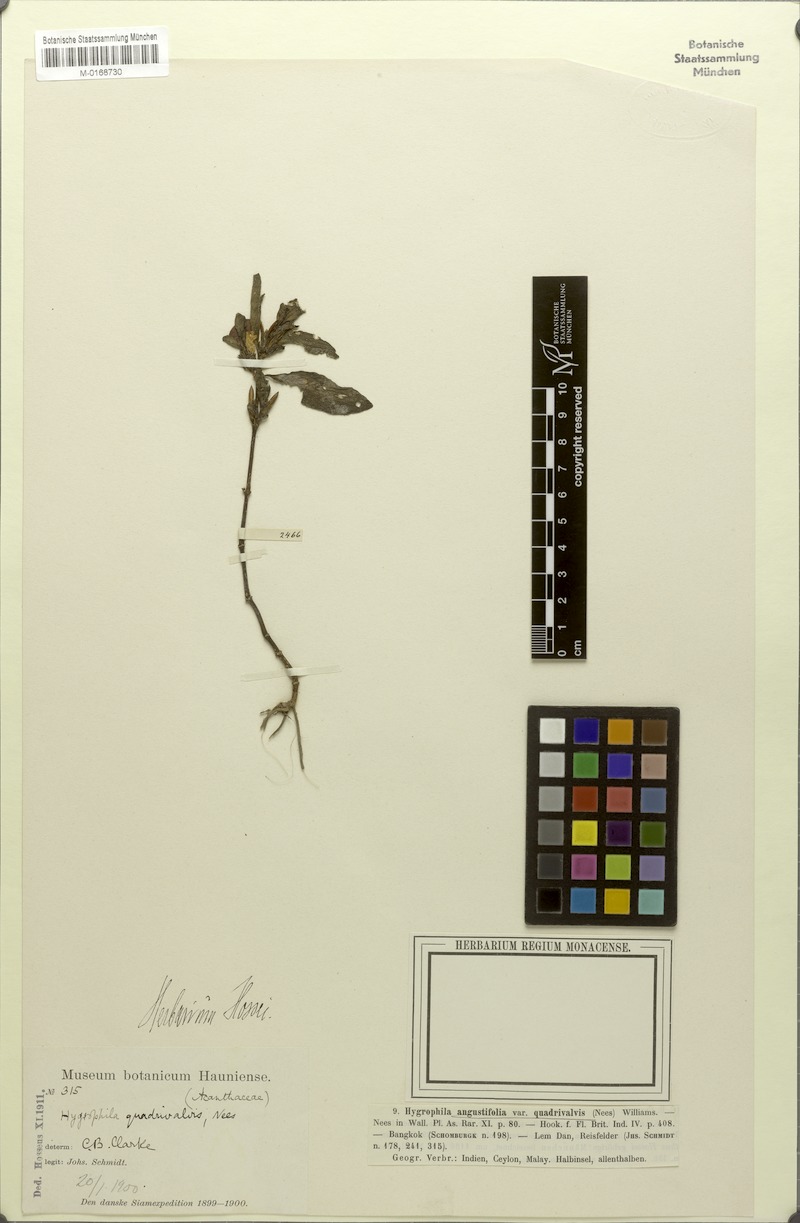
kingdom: Plantae
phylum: Tracheophyta
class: Magnoliopsida
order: Lamiales
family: Acanthaceae
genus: Hygrophila
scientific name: Hygrophila ringens
